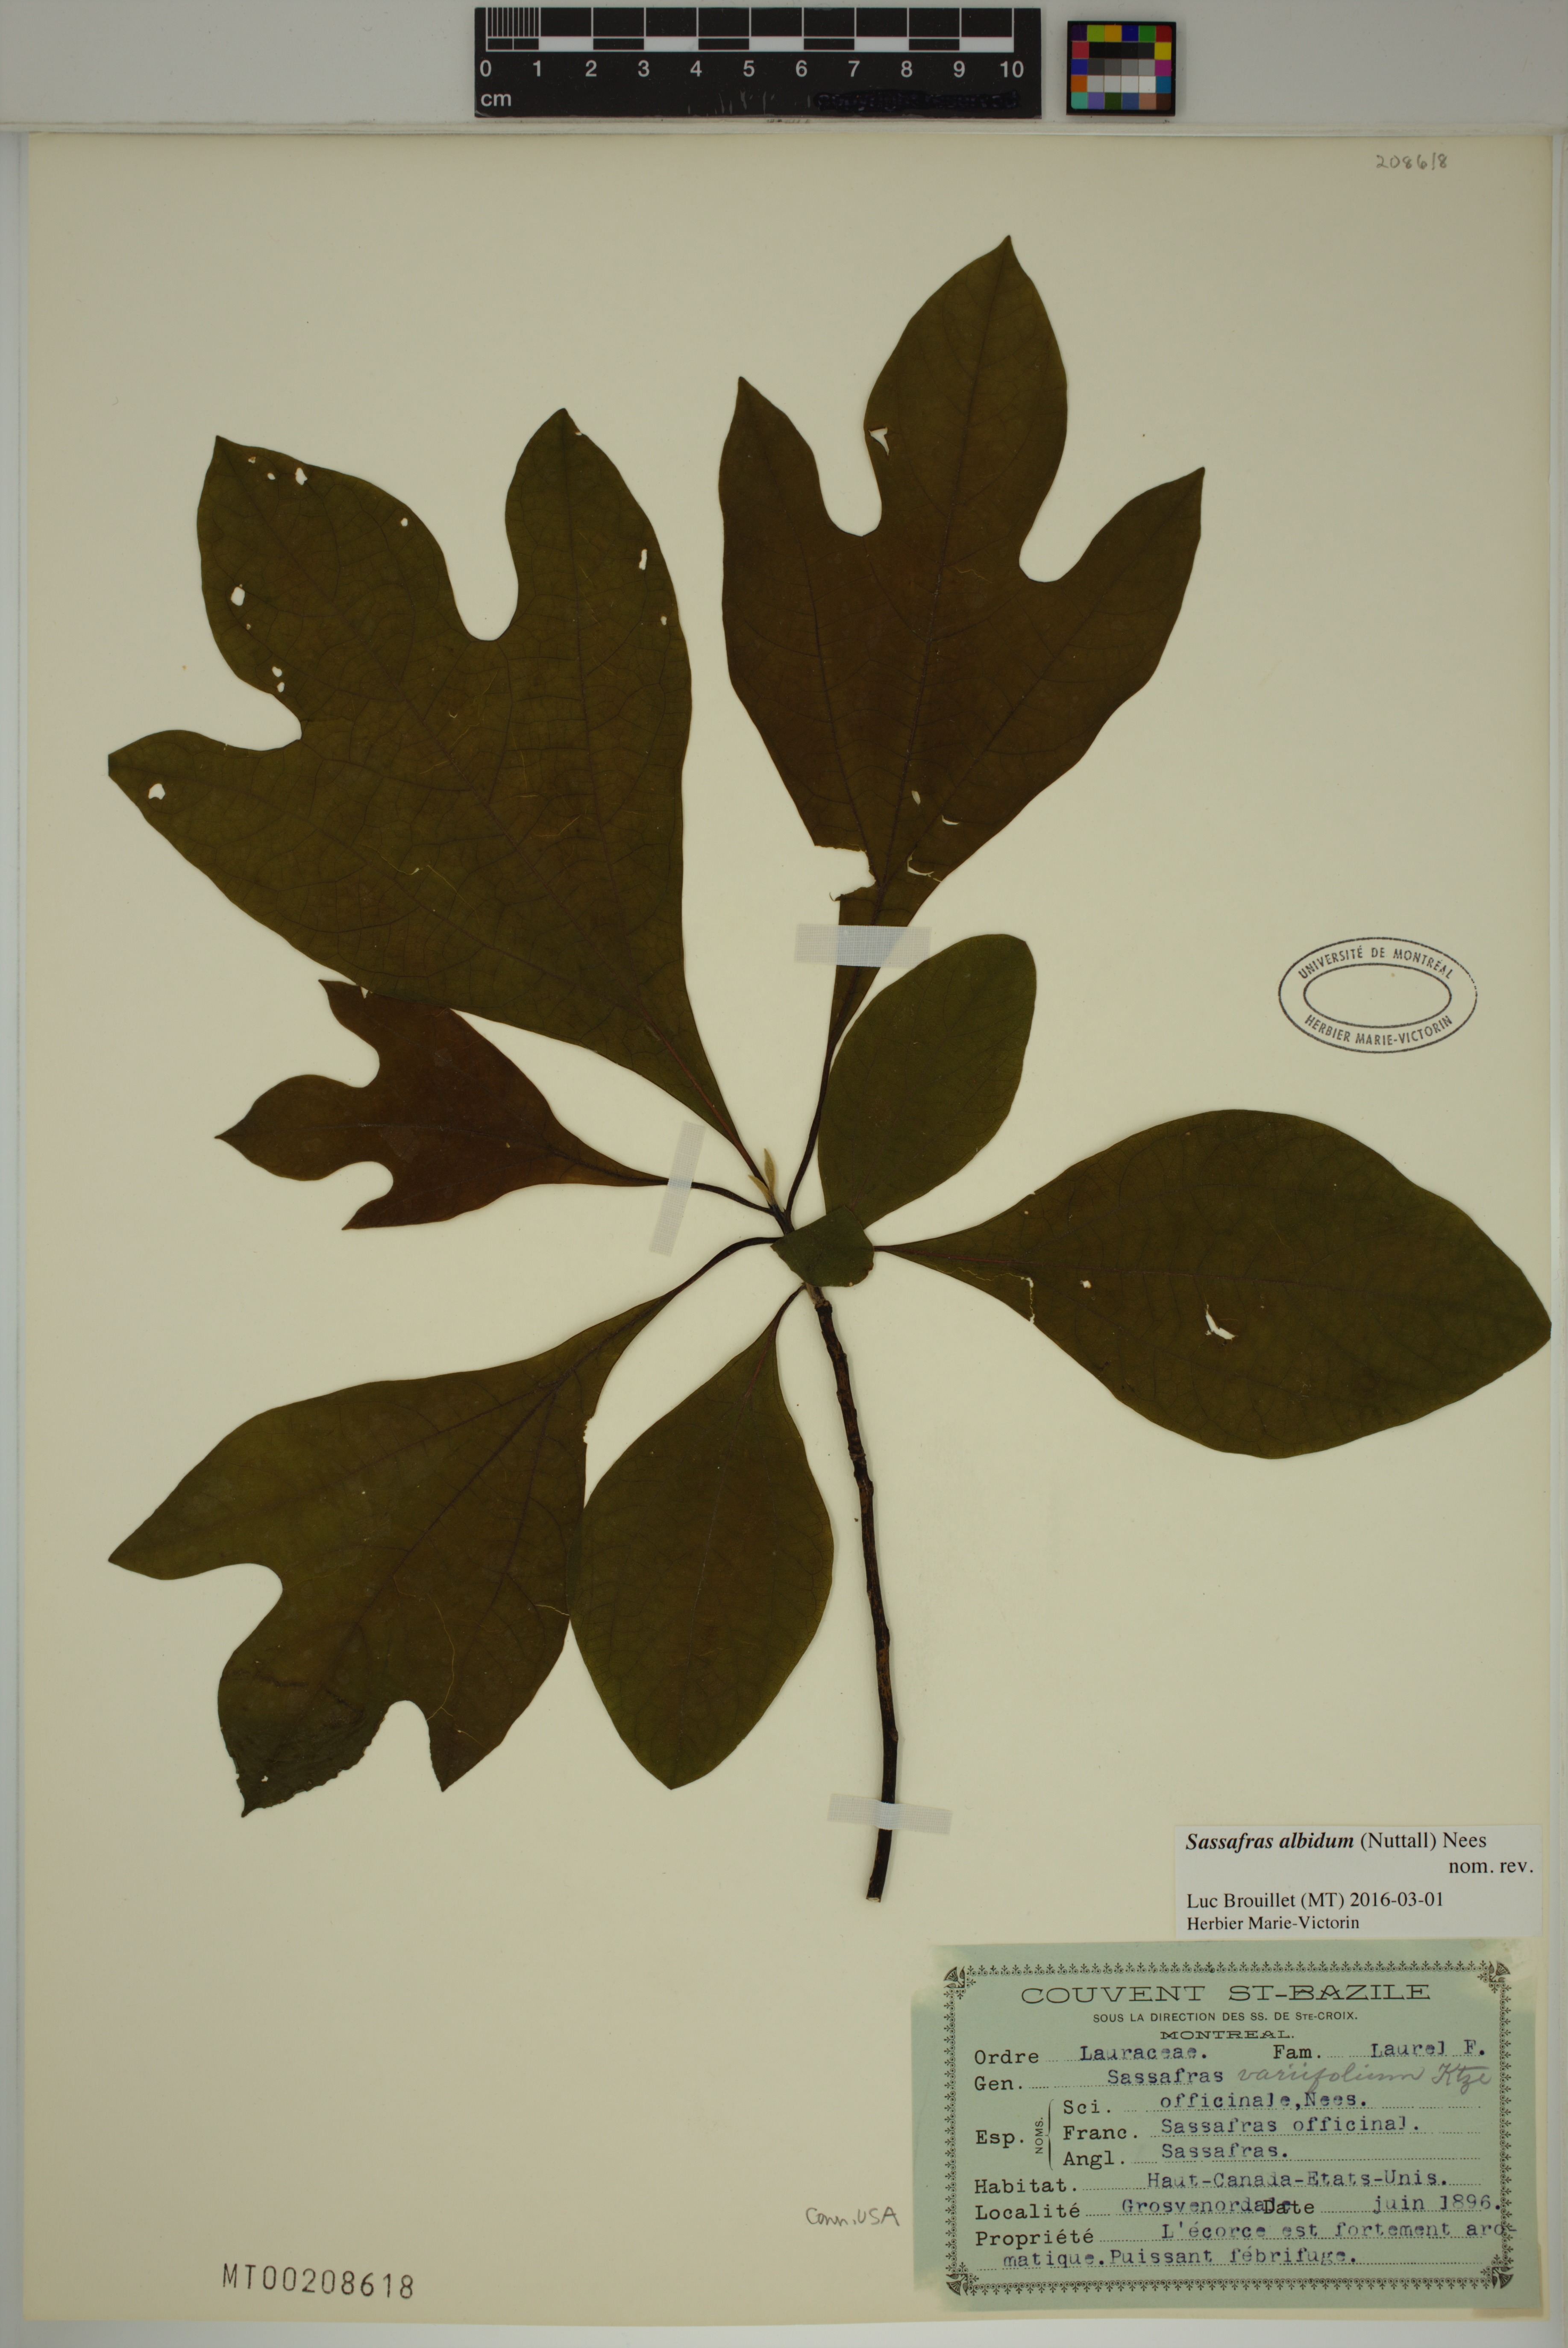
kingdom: Plantae
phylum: Tracheophyta
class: Magnoliopsida
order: Laurales
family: Lauraceae
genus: Sassafras
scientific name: Sassafras albidum
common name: Sassafras
